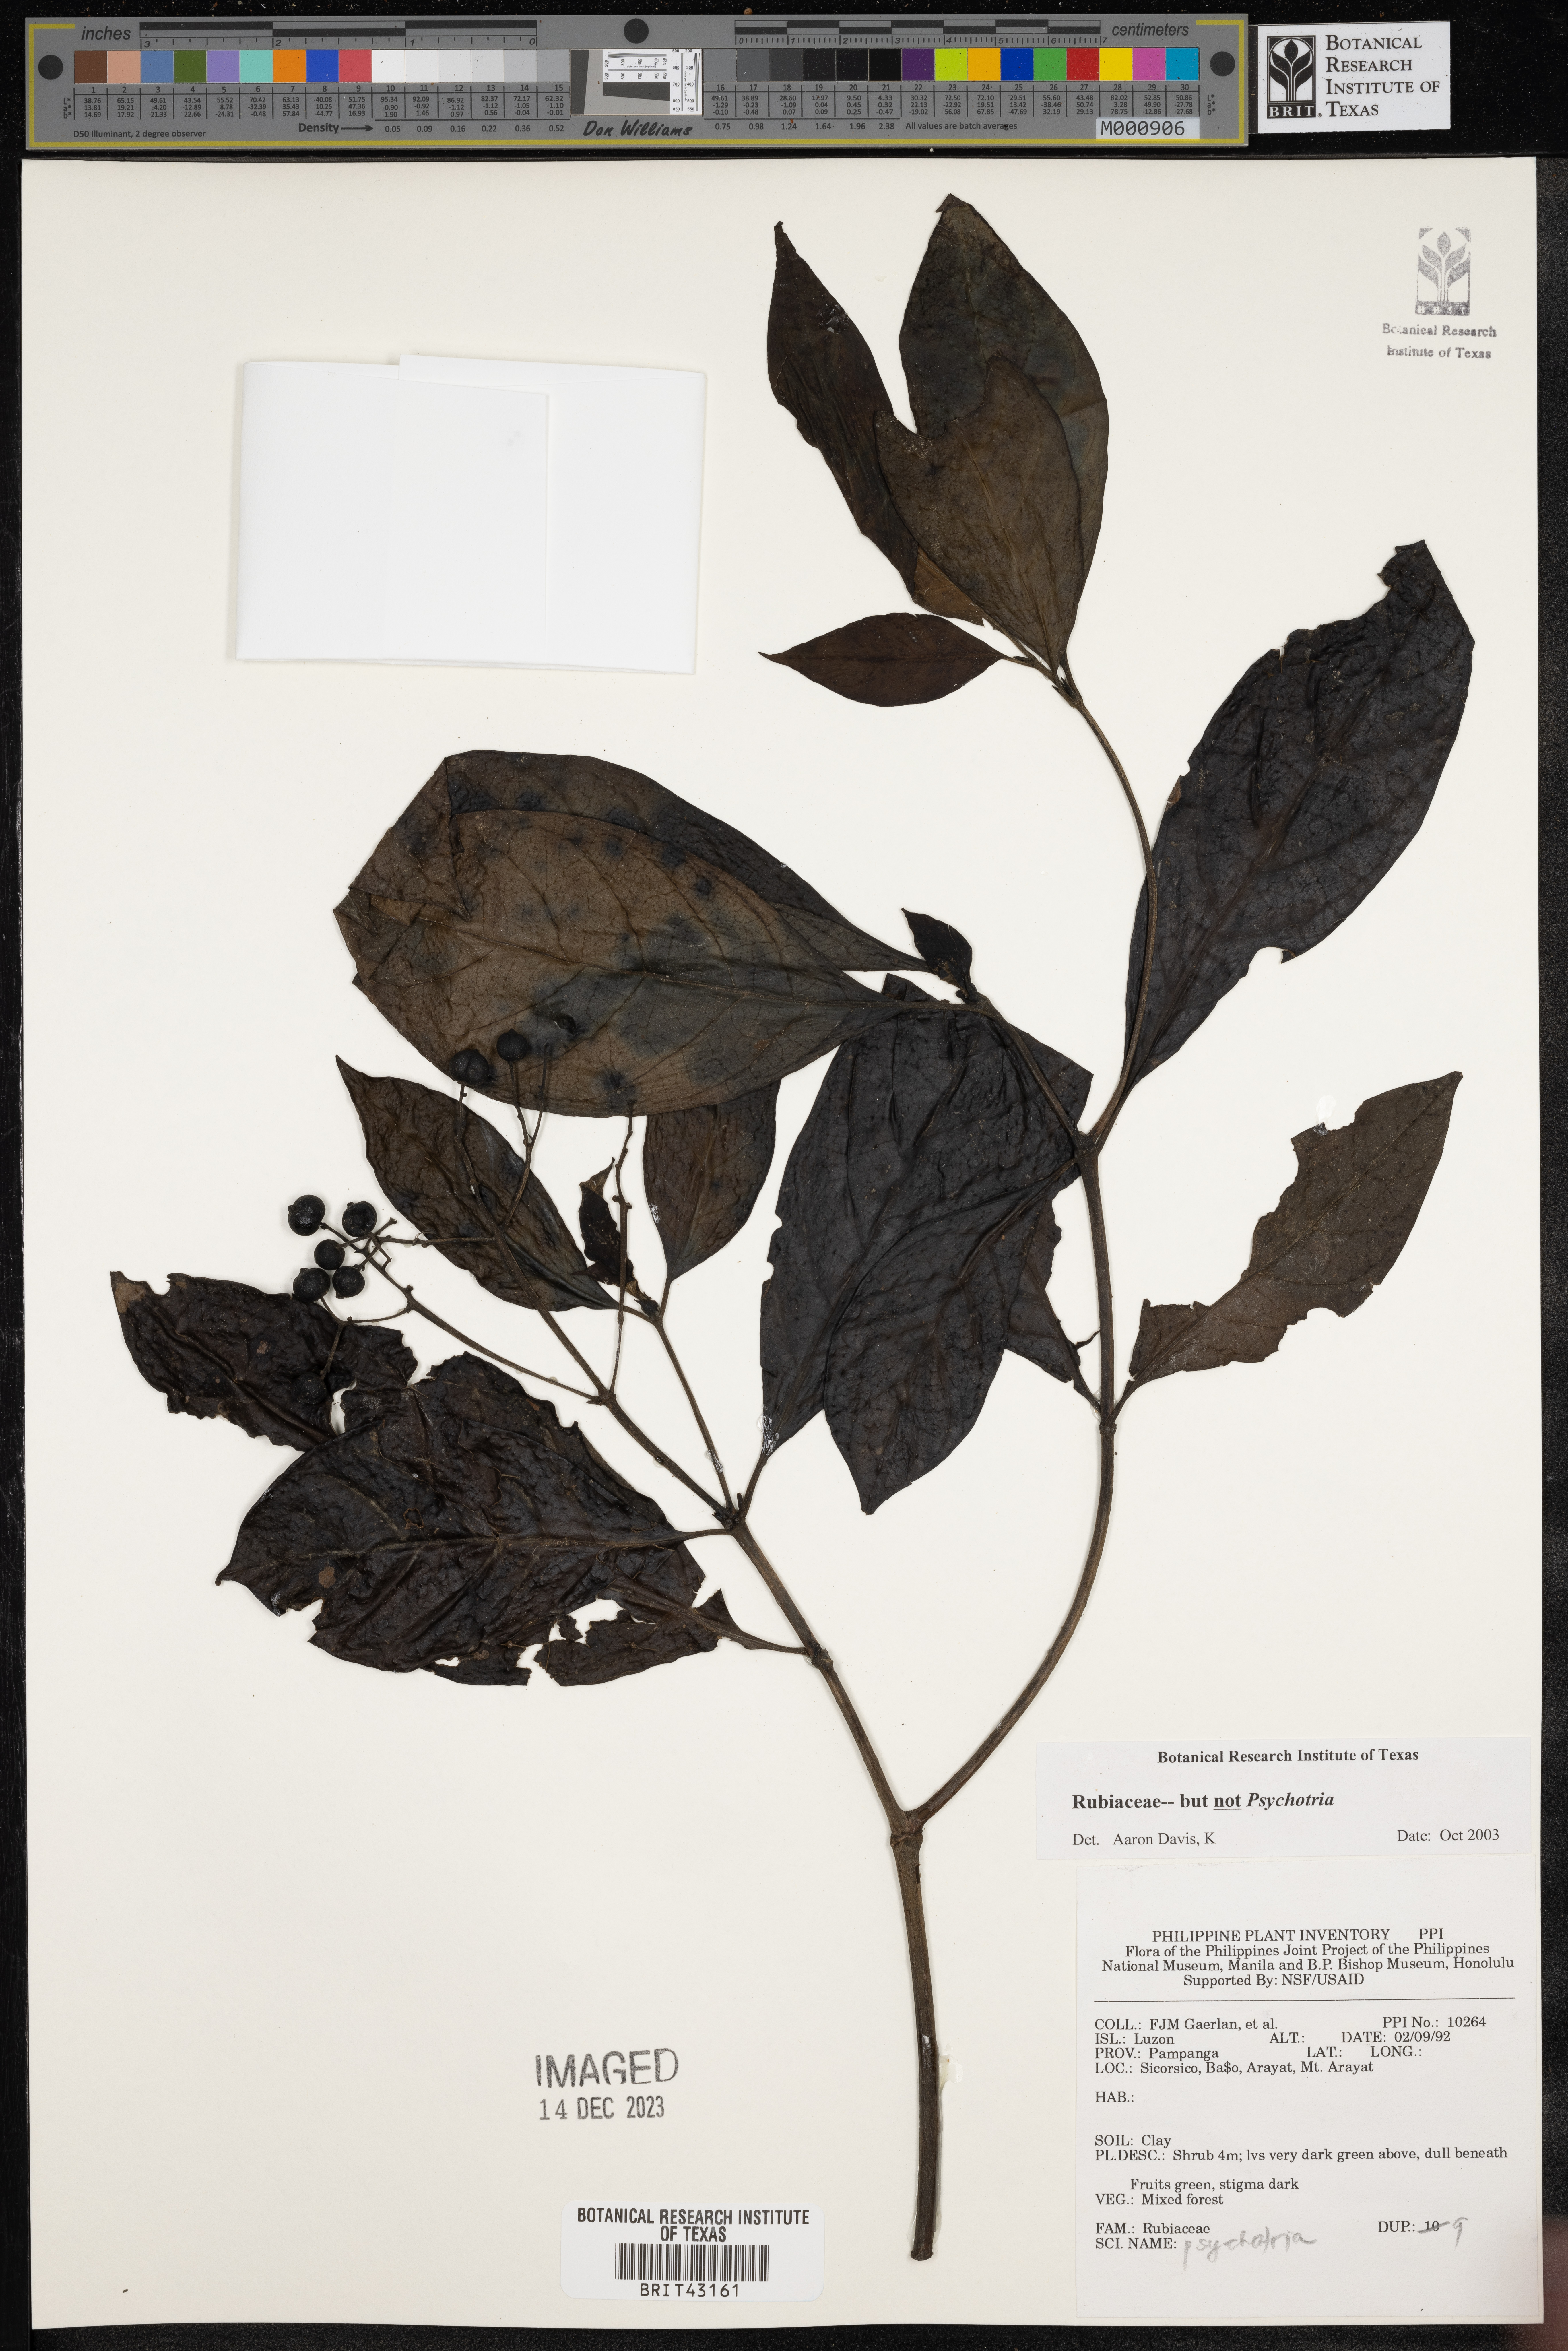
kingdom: Plantae
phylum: Tracheophyta
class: Magnoliopsida
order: Gentianales
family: Rubiaceae
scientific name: Rubiaceae
